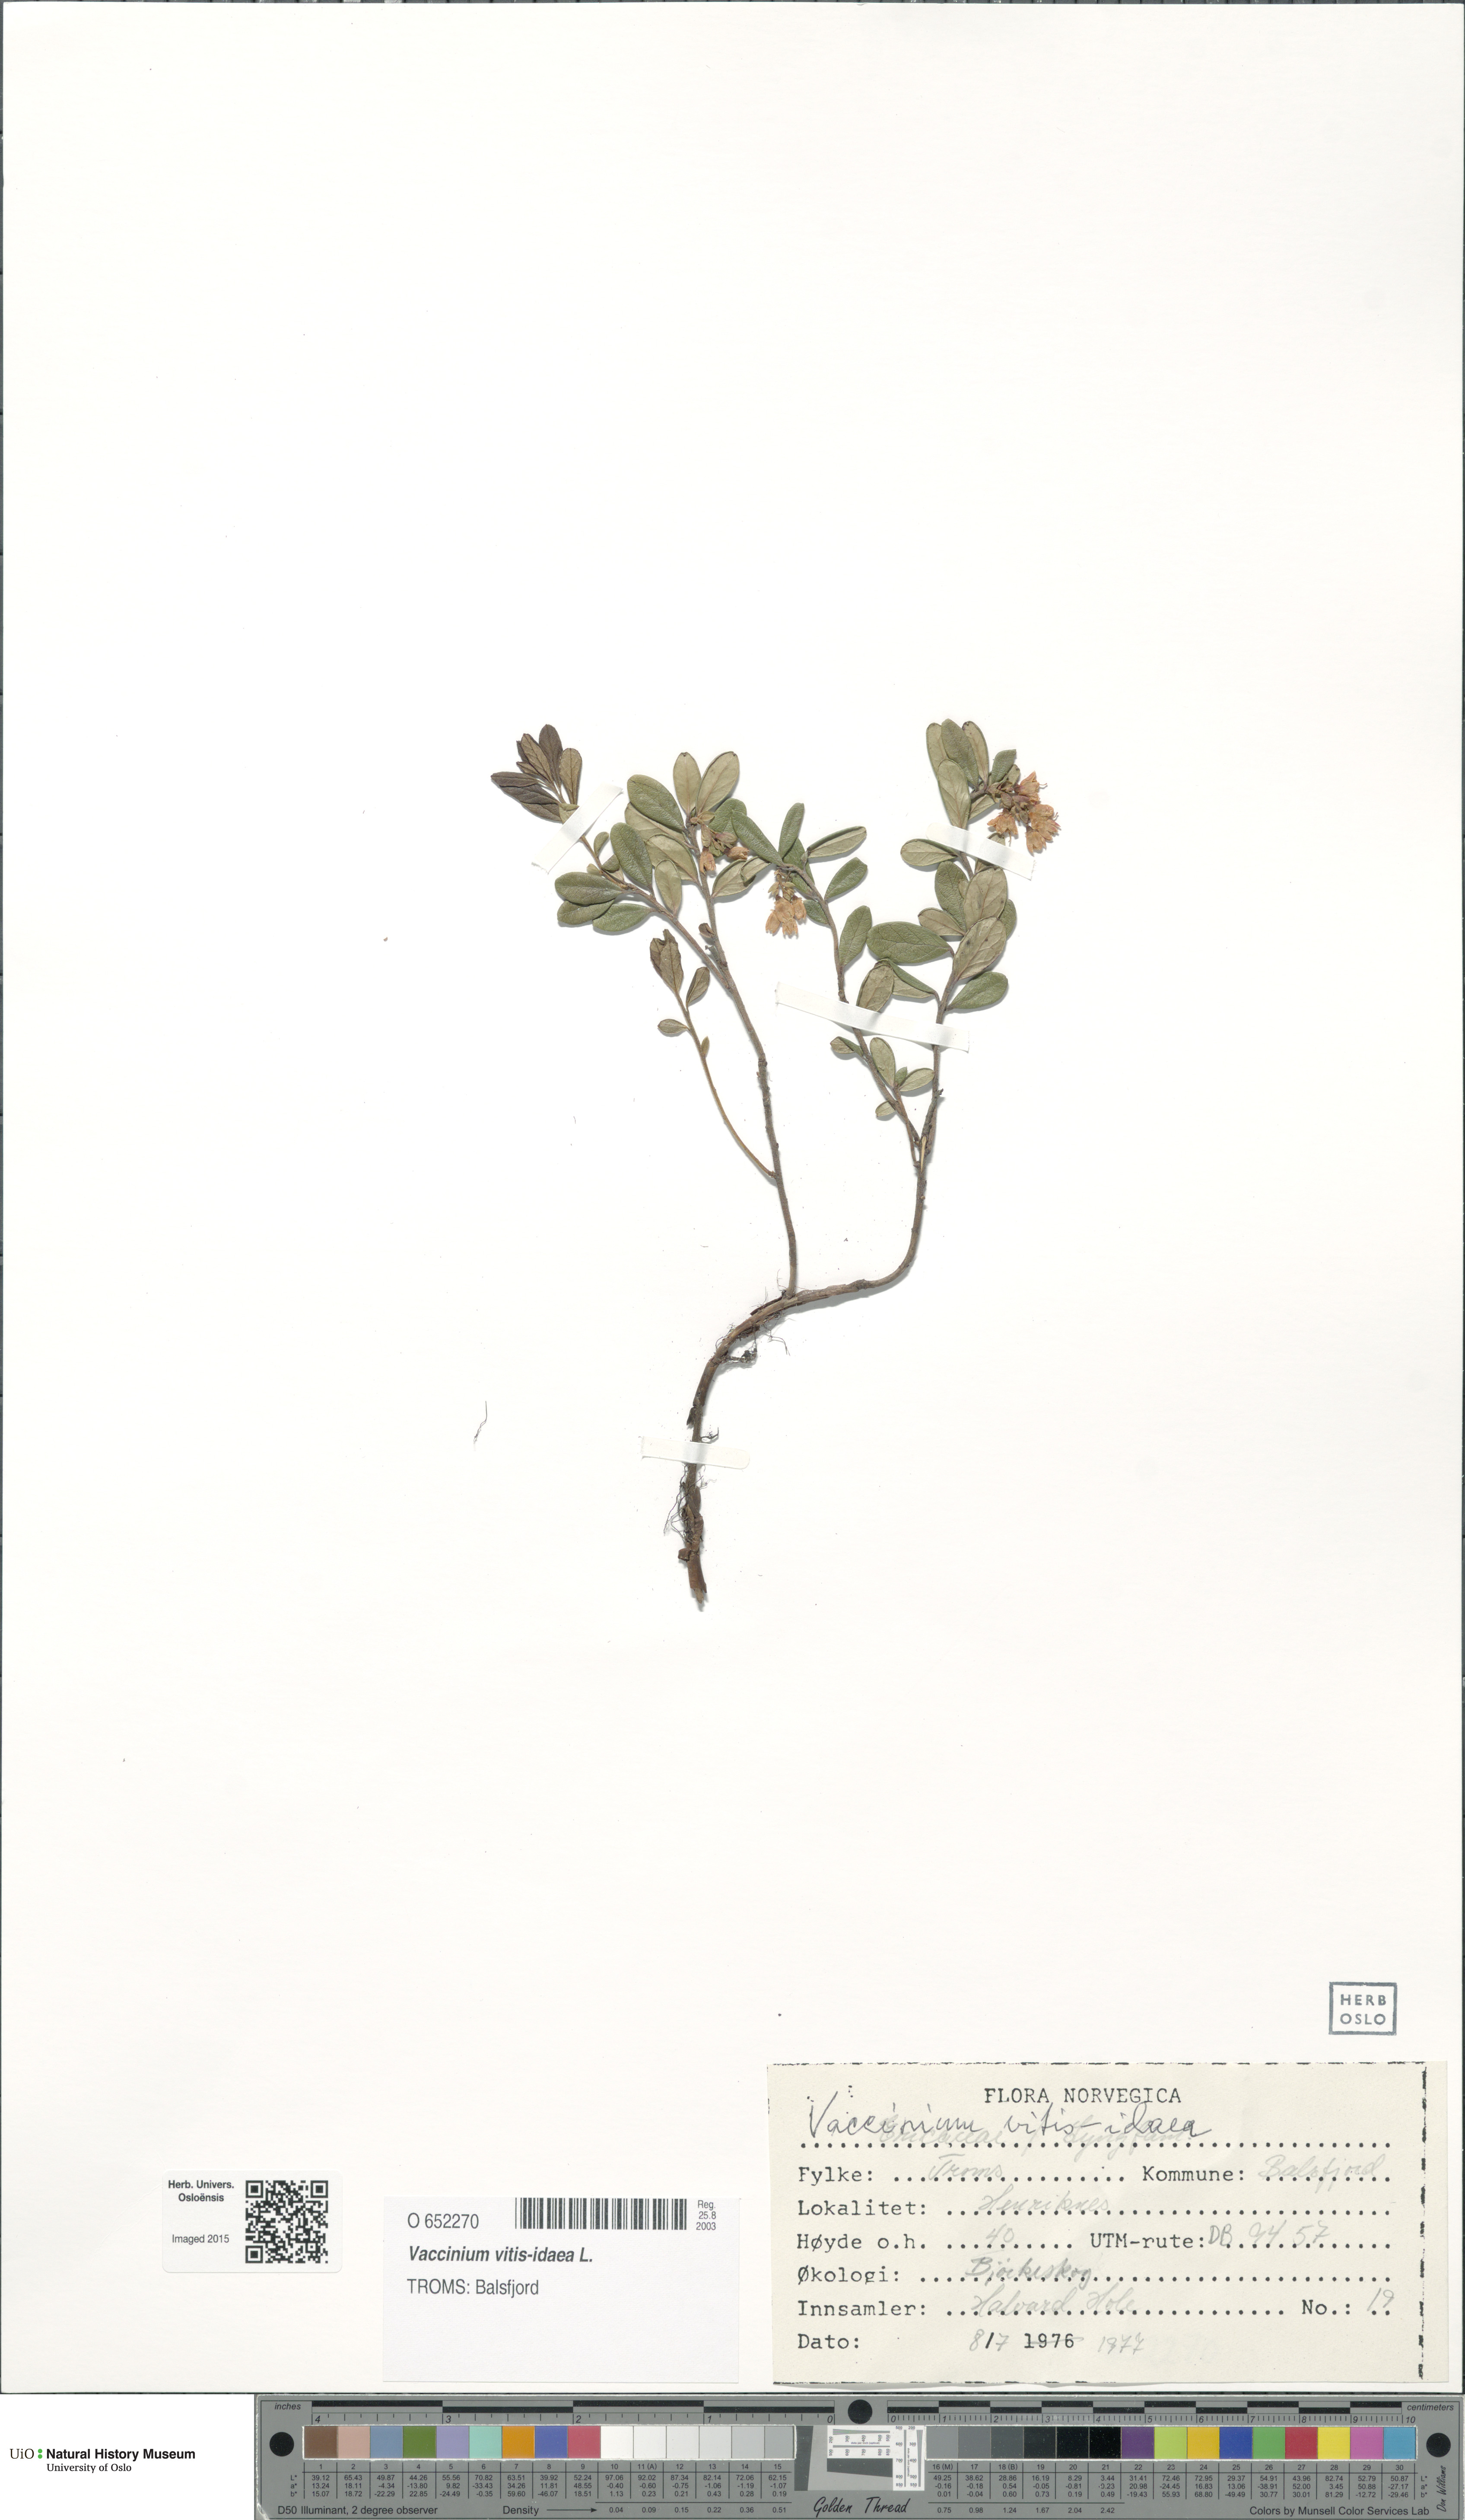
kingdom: Plantae
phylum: Tracheophyta
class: Magnoliopsida
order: Ericales
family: Ericaceae
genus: Vaccinium
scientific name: Vaccinium vitis-idaea
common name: Cowberry
